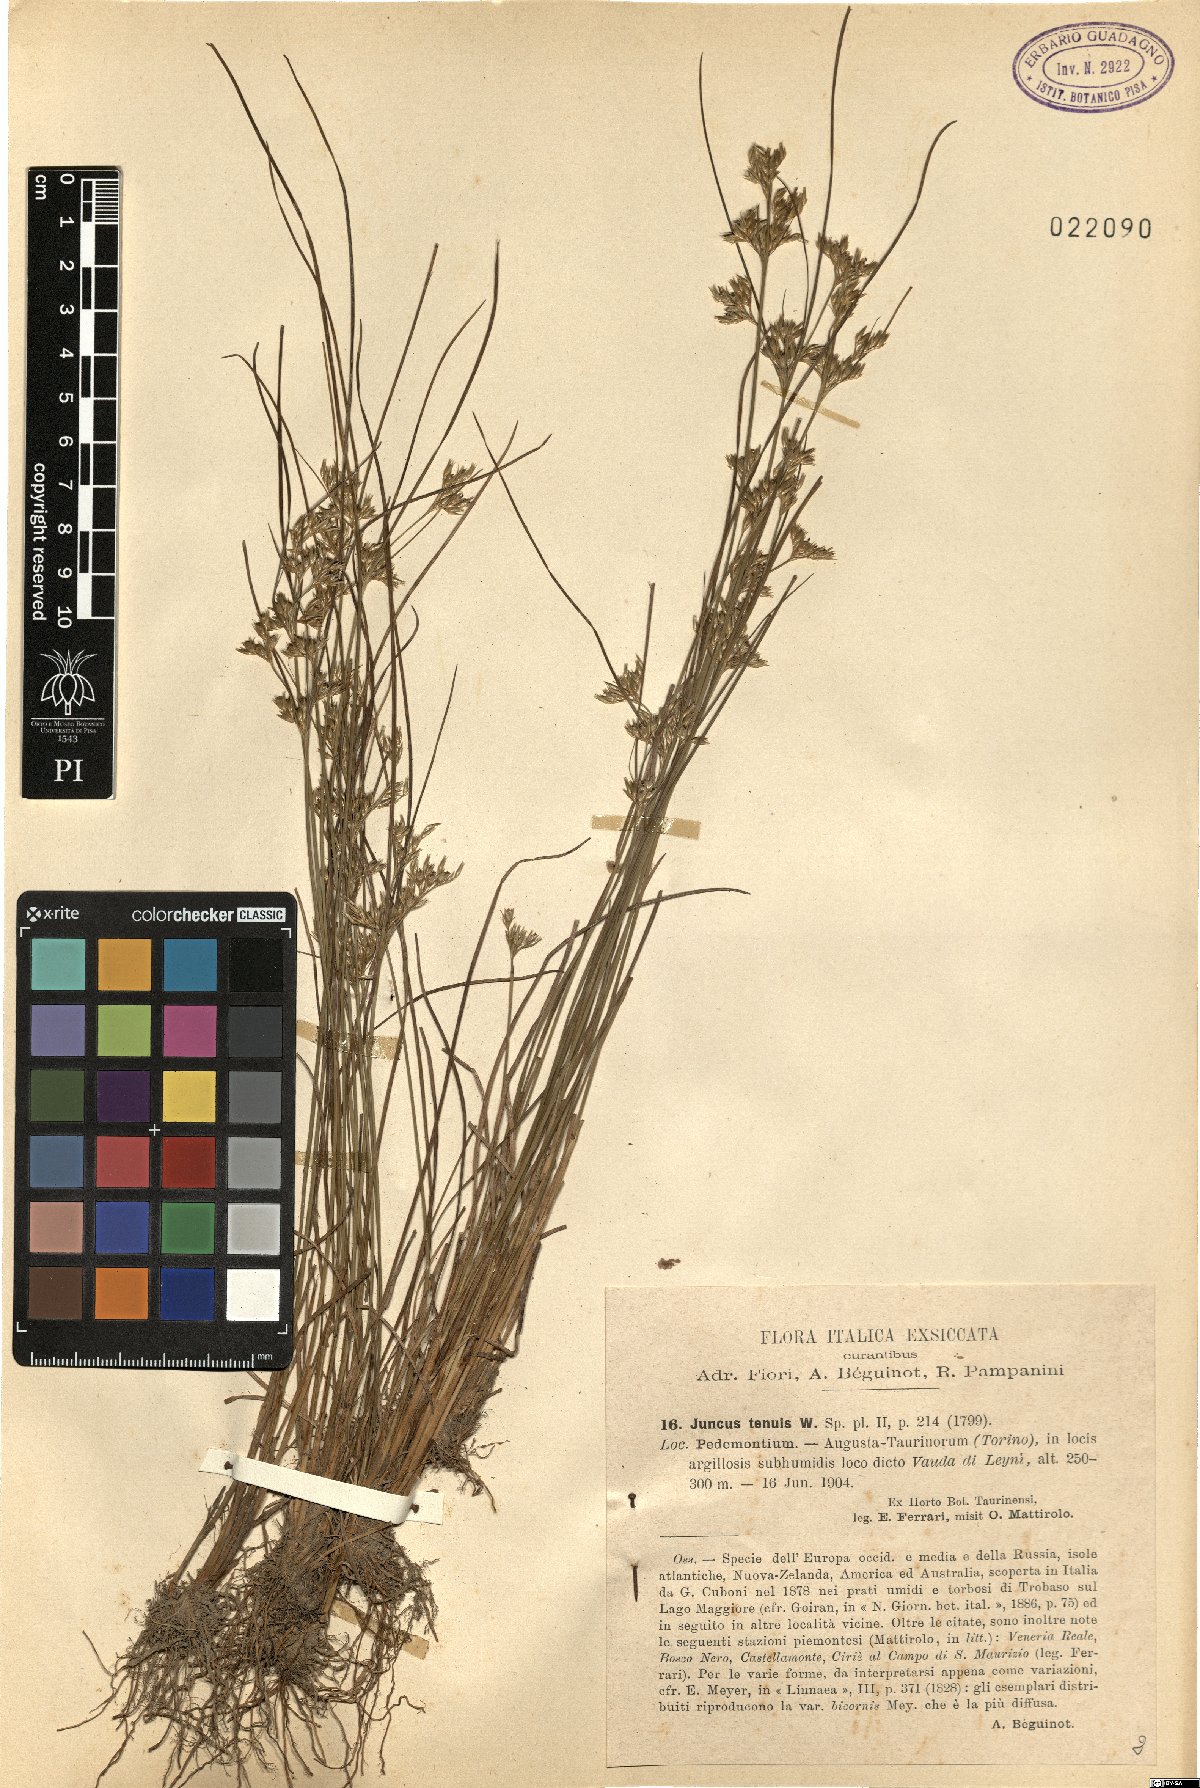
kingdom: Plantae
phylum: Tracheophyta
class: Liliopsida
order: Poales
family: Juncaceae
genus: Juncus
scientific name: Juncus tenuis
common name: Slender rush
